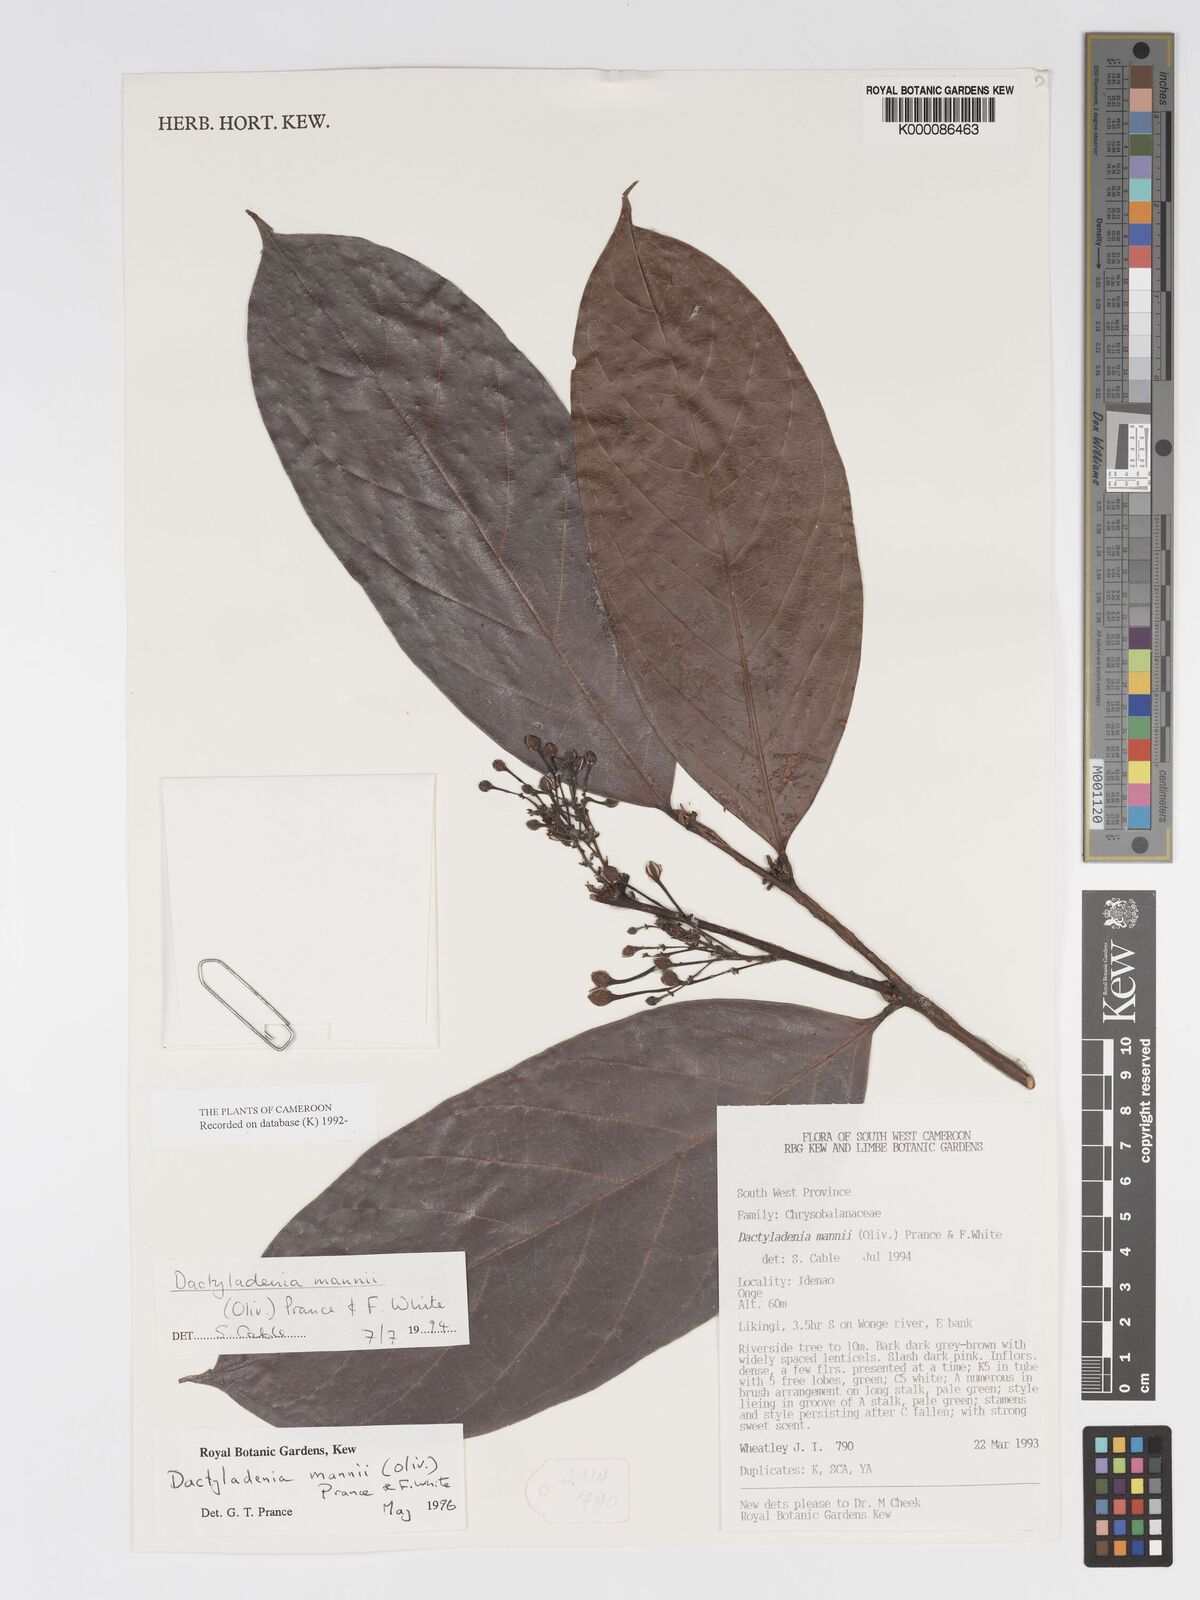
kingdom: Plantae
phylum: Tracheophyta
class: Magnoliopsida
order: Malpighiales
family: Chrysobalanaceae
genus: Dactyladenia
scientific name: Dactyladenia mannii
